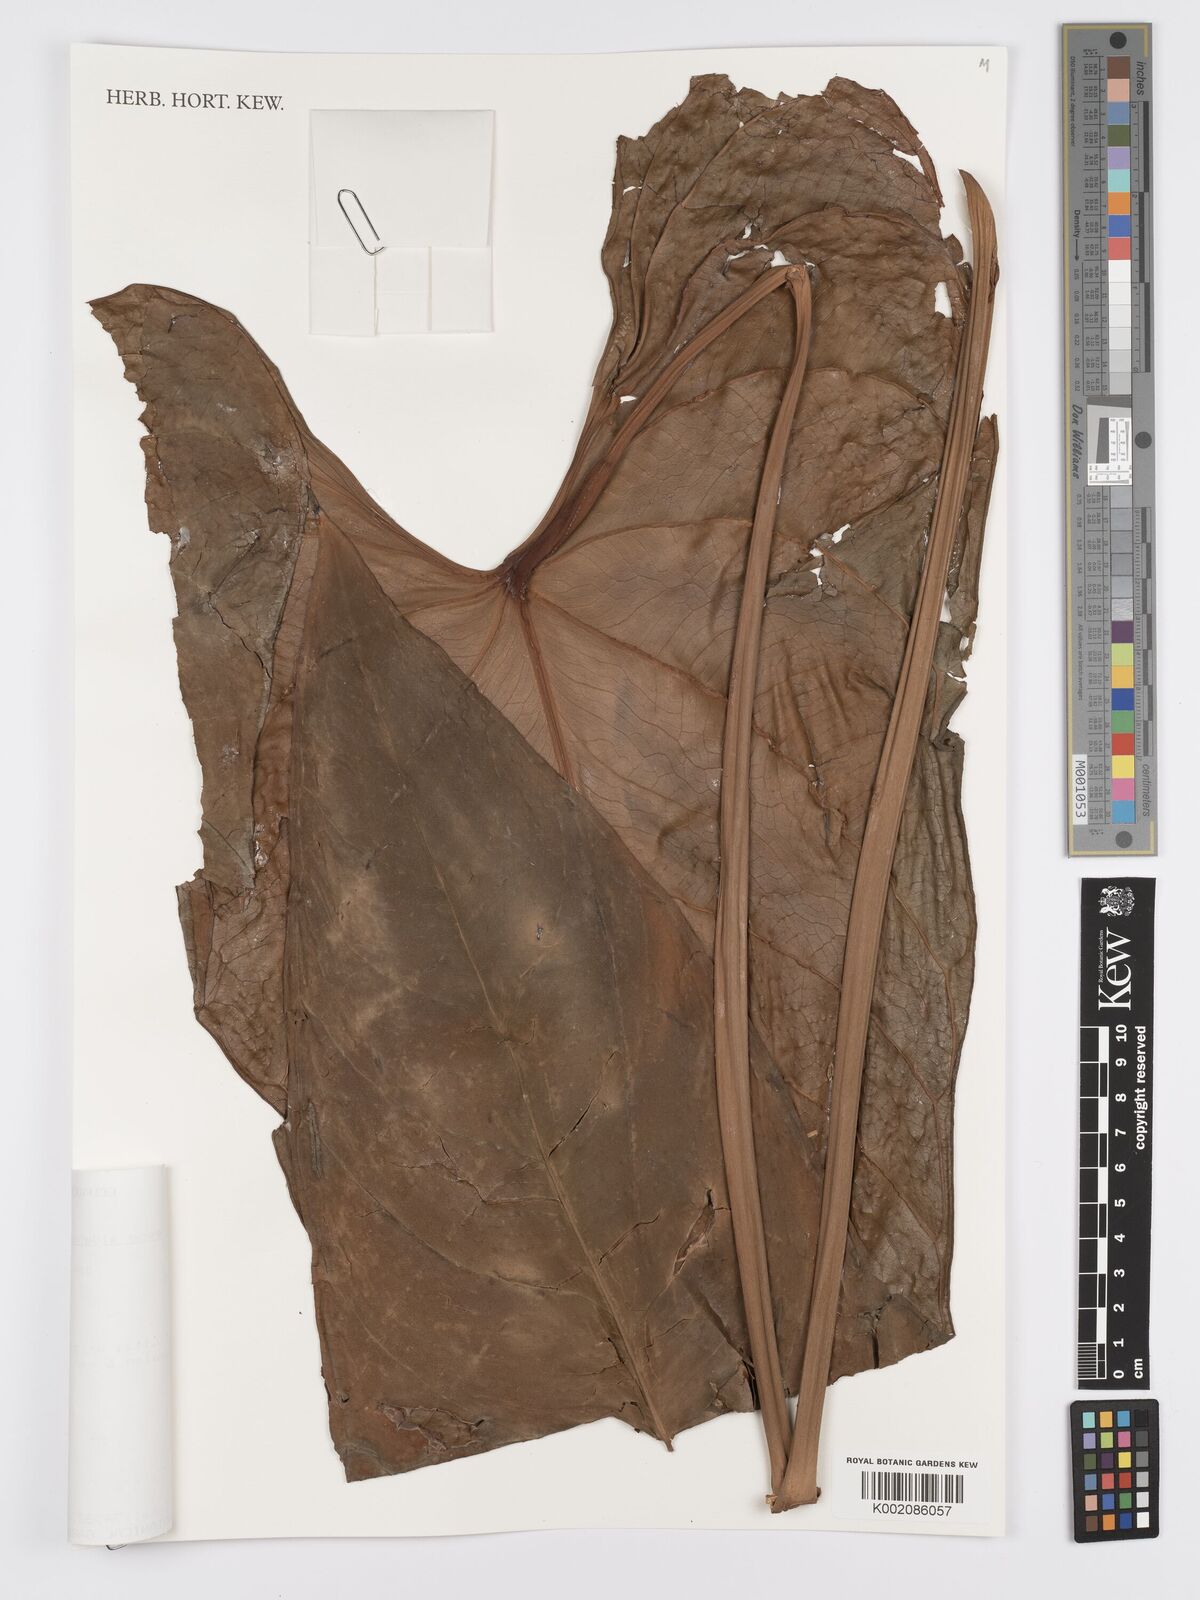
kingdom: Plantae
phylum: Tracheophyta
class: Liliopsida
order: Alismatales
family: Araceae
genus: Anthurium
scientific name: Anthurium esmeraldense
